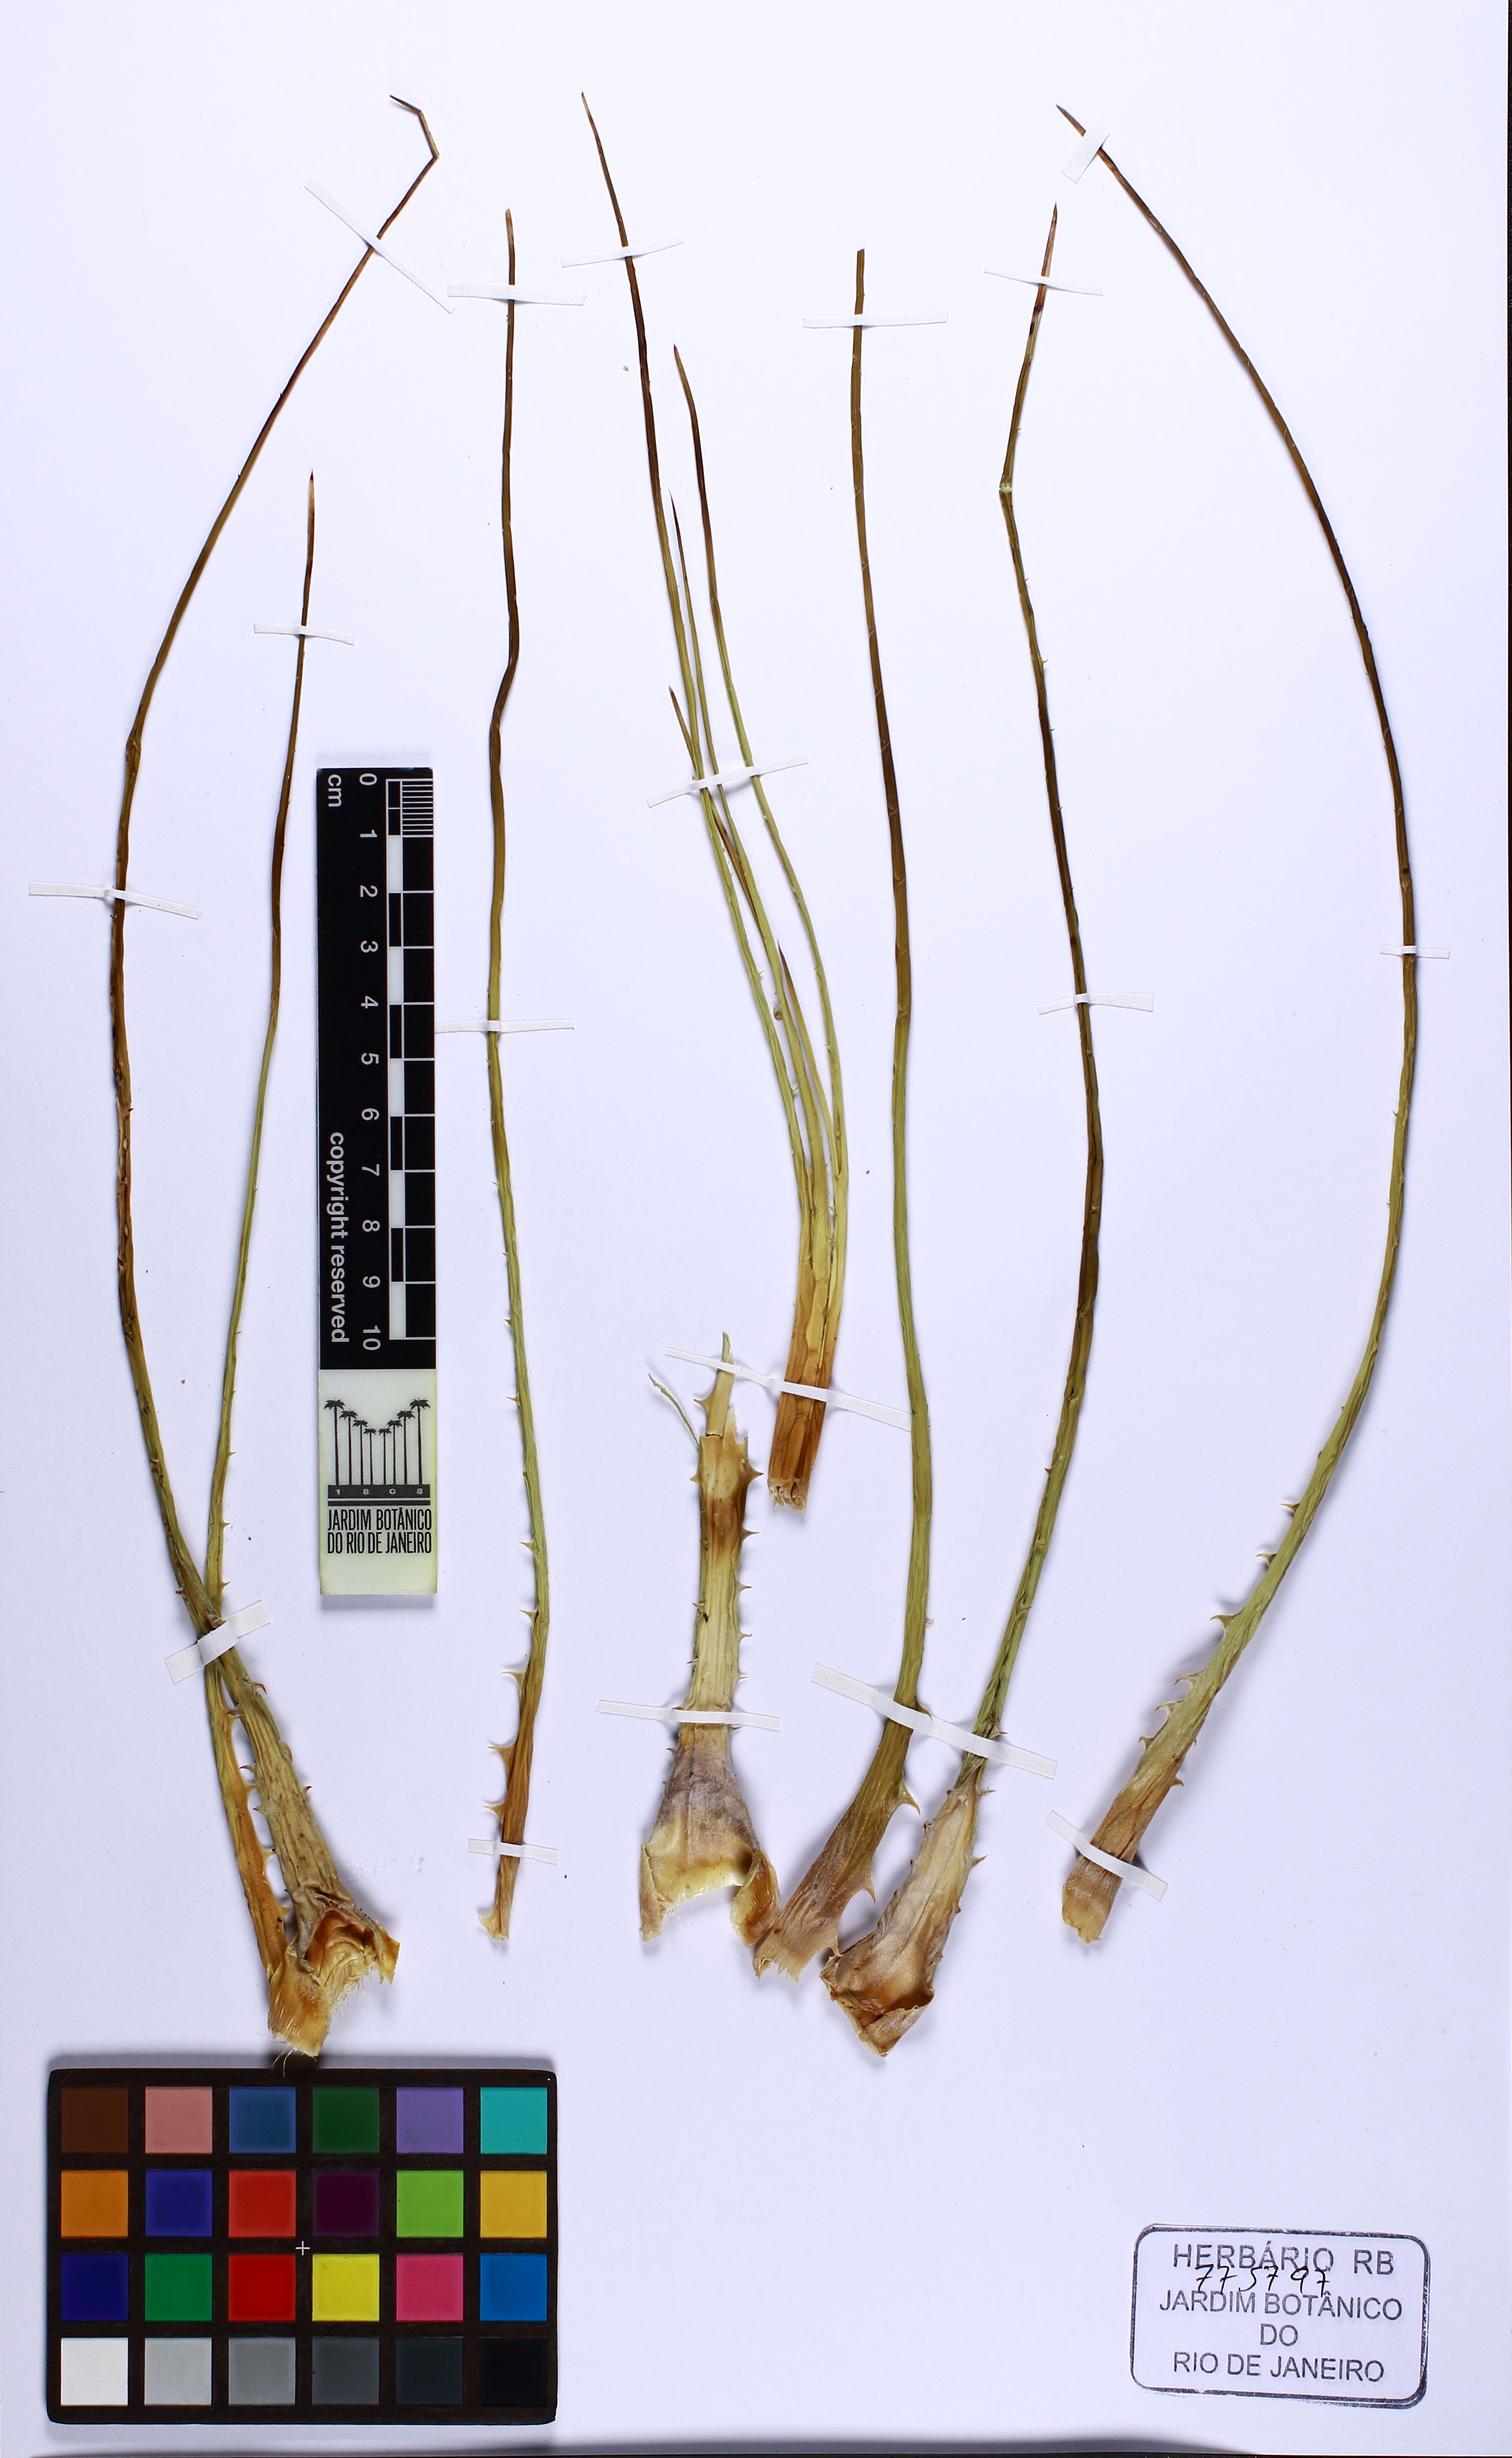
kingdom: Plantae
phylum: Tracheophyta
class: Liliopsida
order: Poales
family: Bromeliaceae
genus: Encholirium
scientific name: Encholirium irwinii
